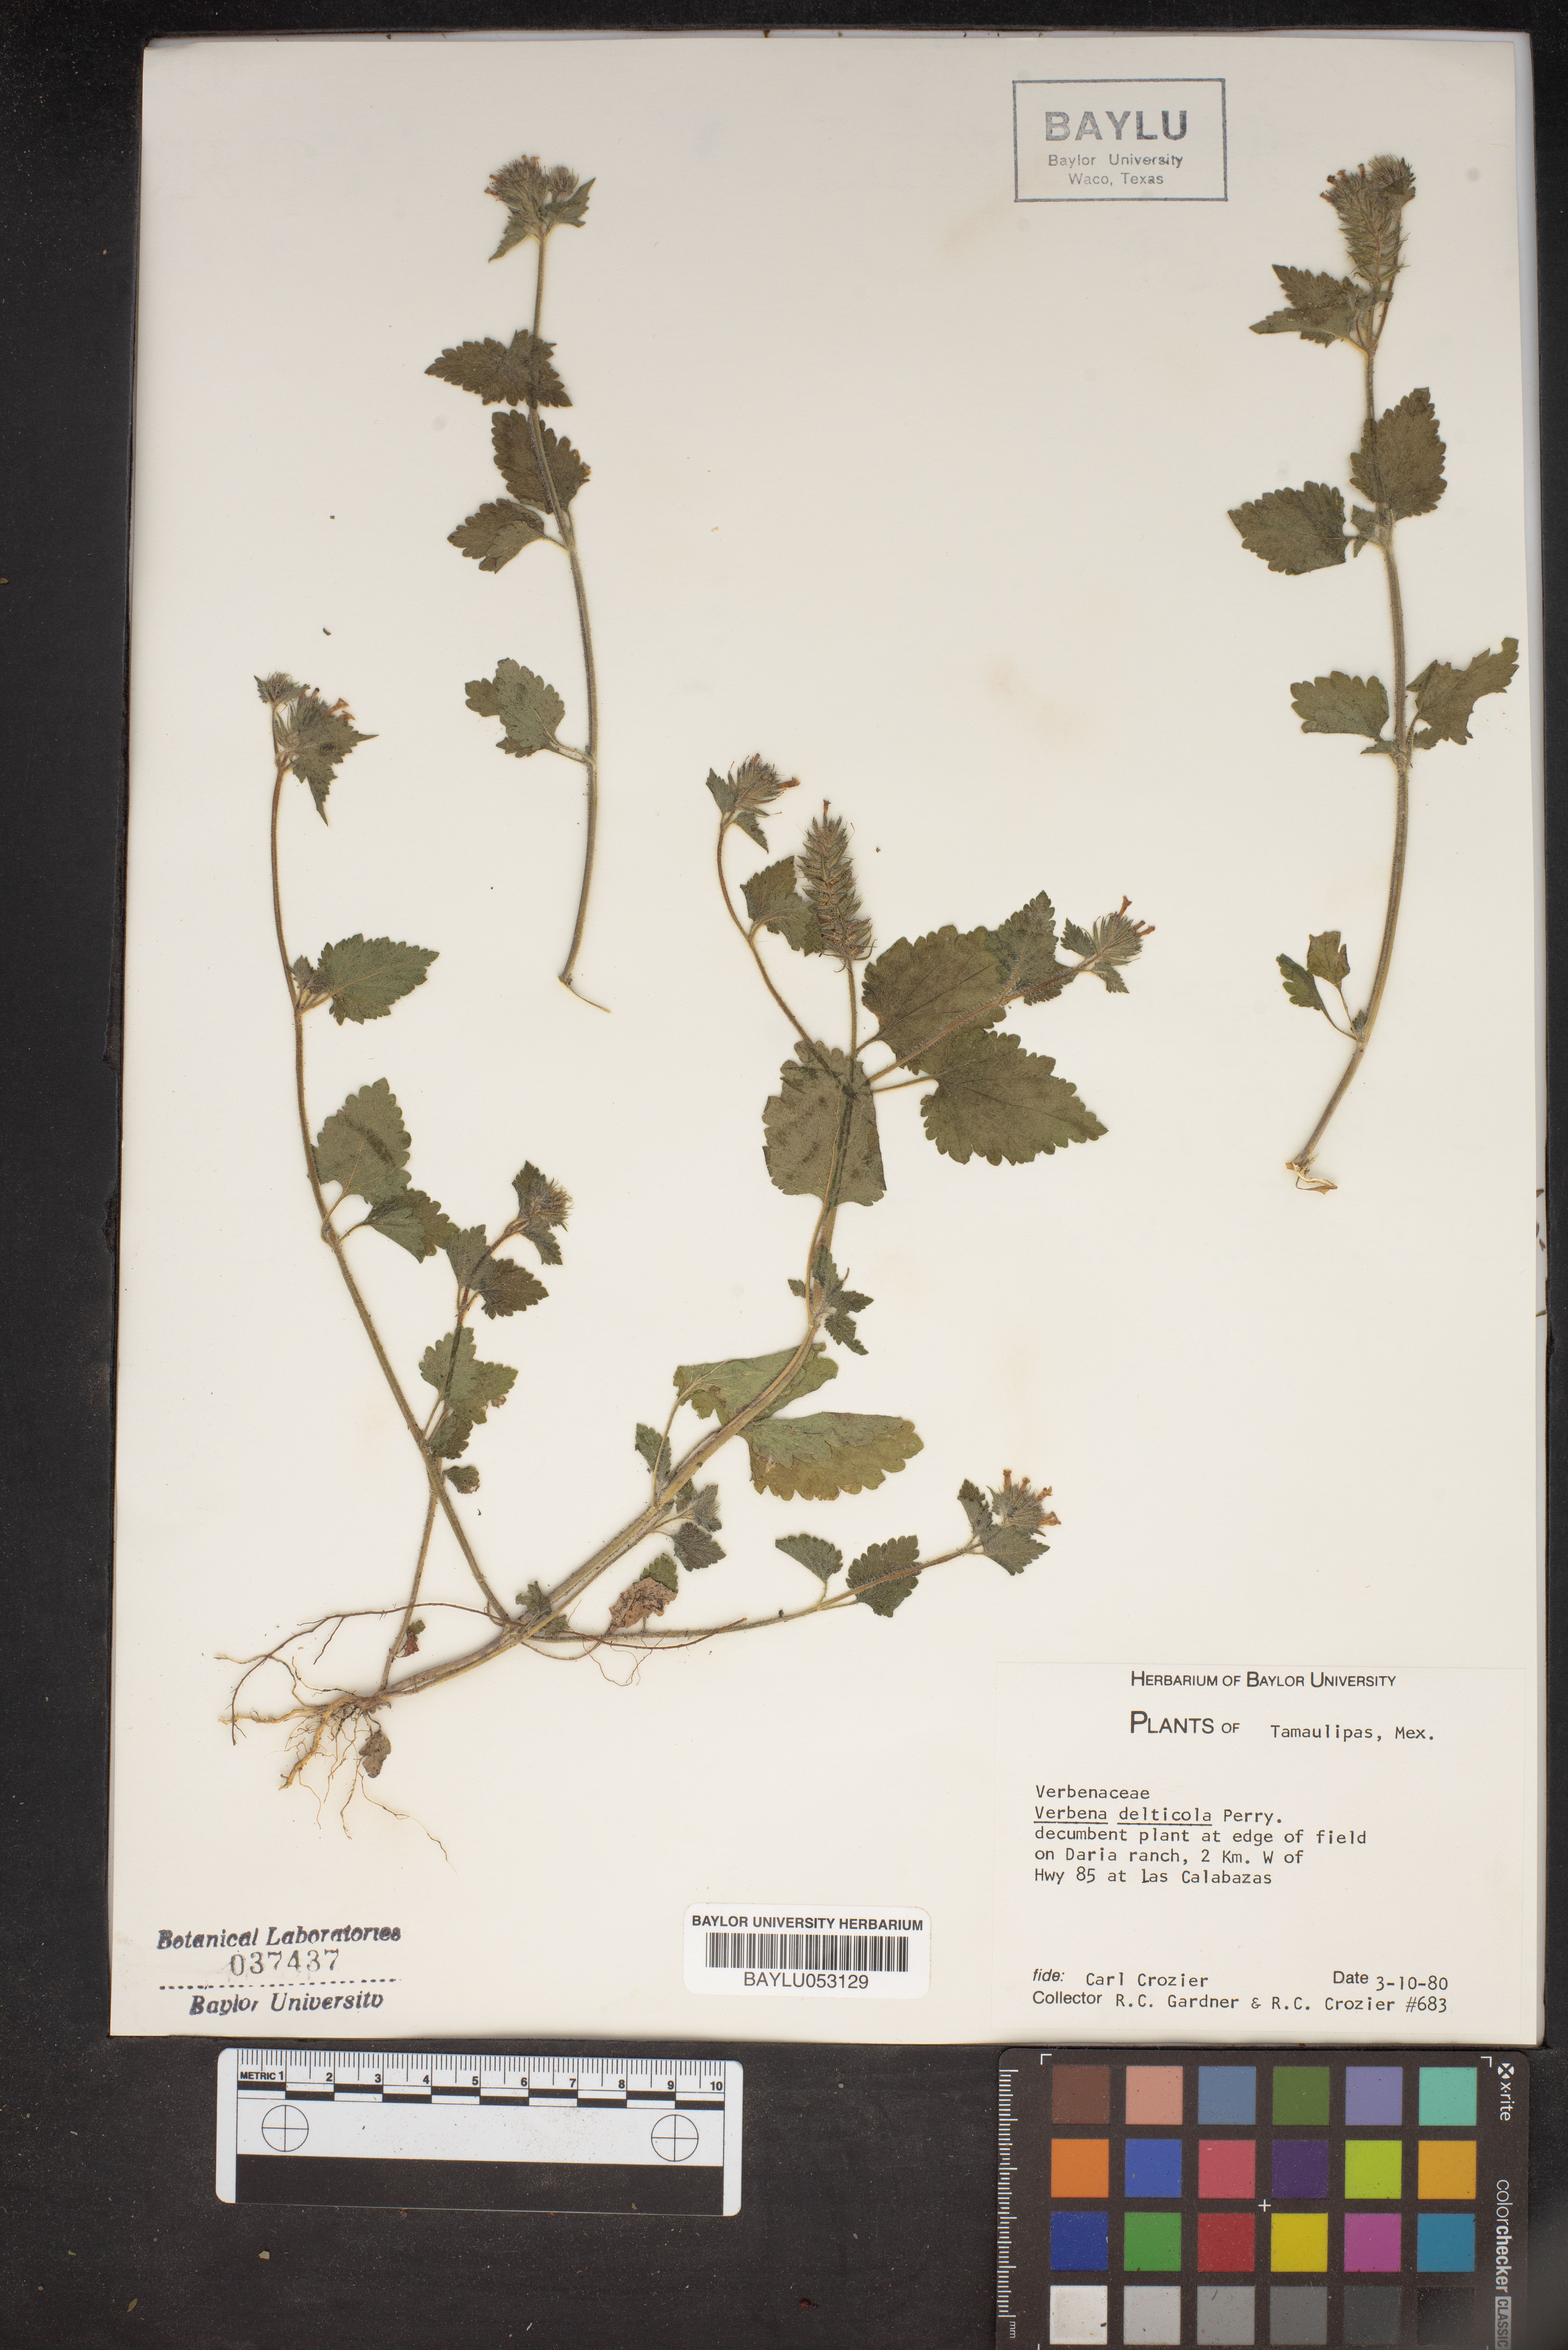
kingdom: Plantae
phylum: Tracheophyta
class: Magnoliopsida
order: Lamiales
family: Verbenaceae
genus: Verbena
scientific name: Verbena delticola
